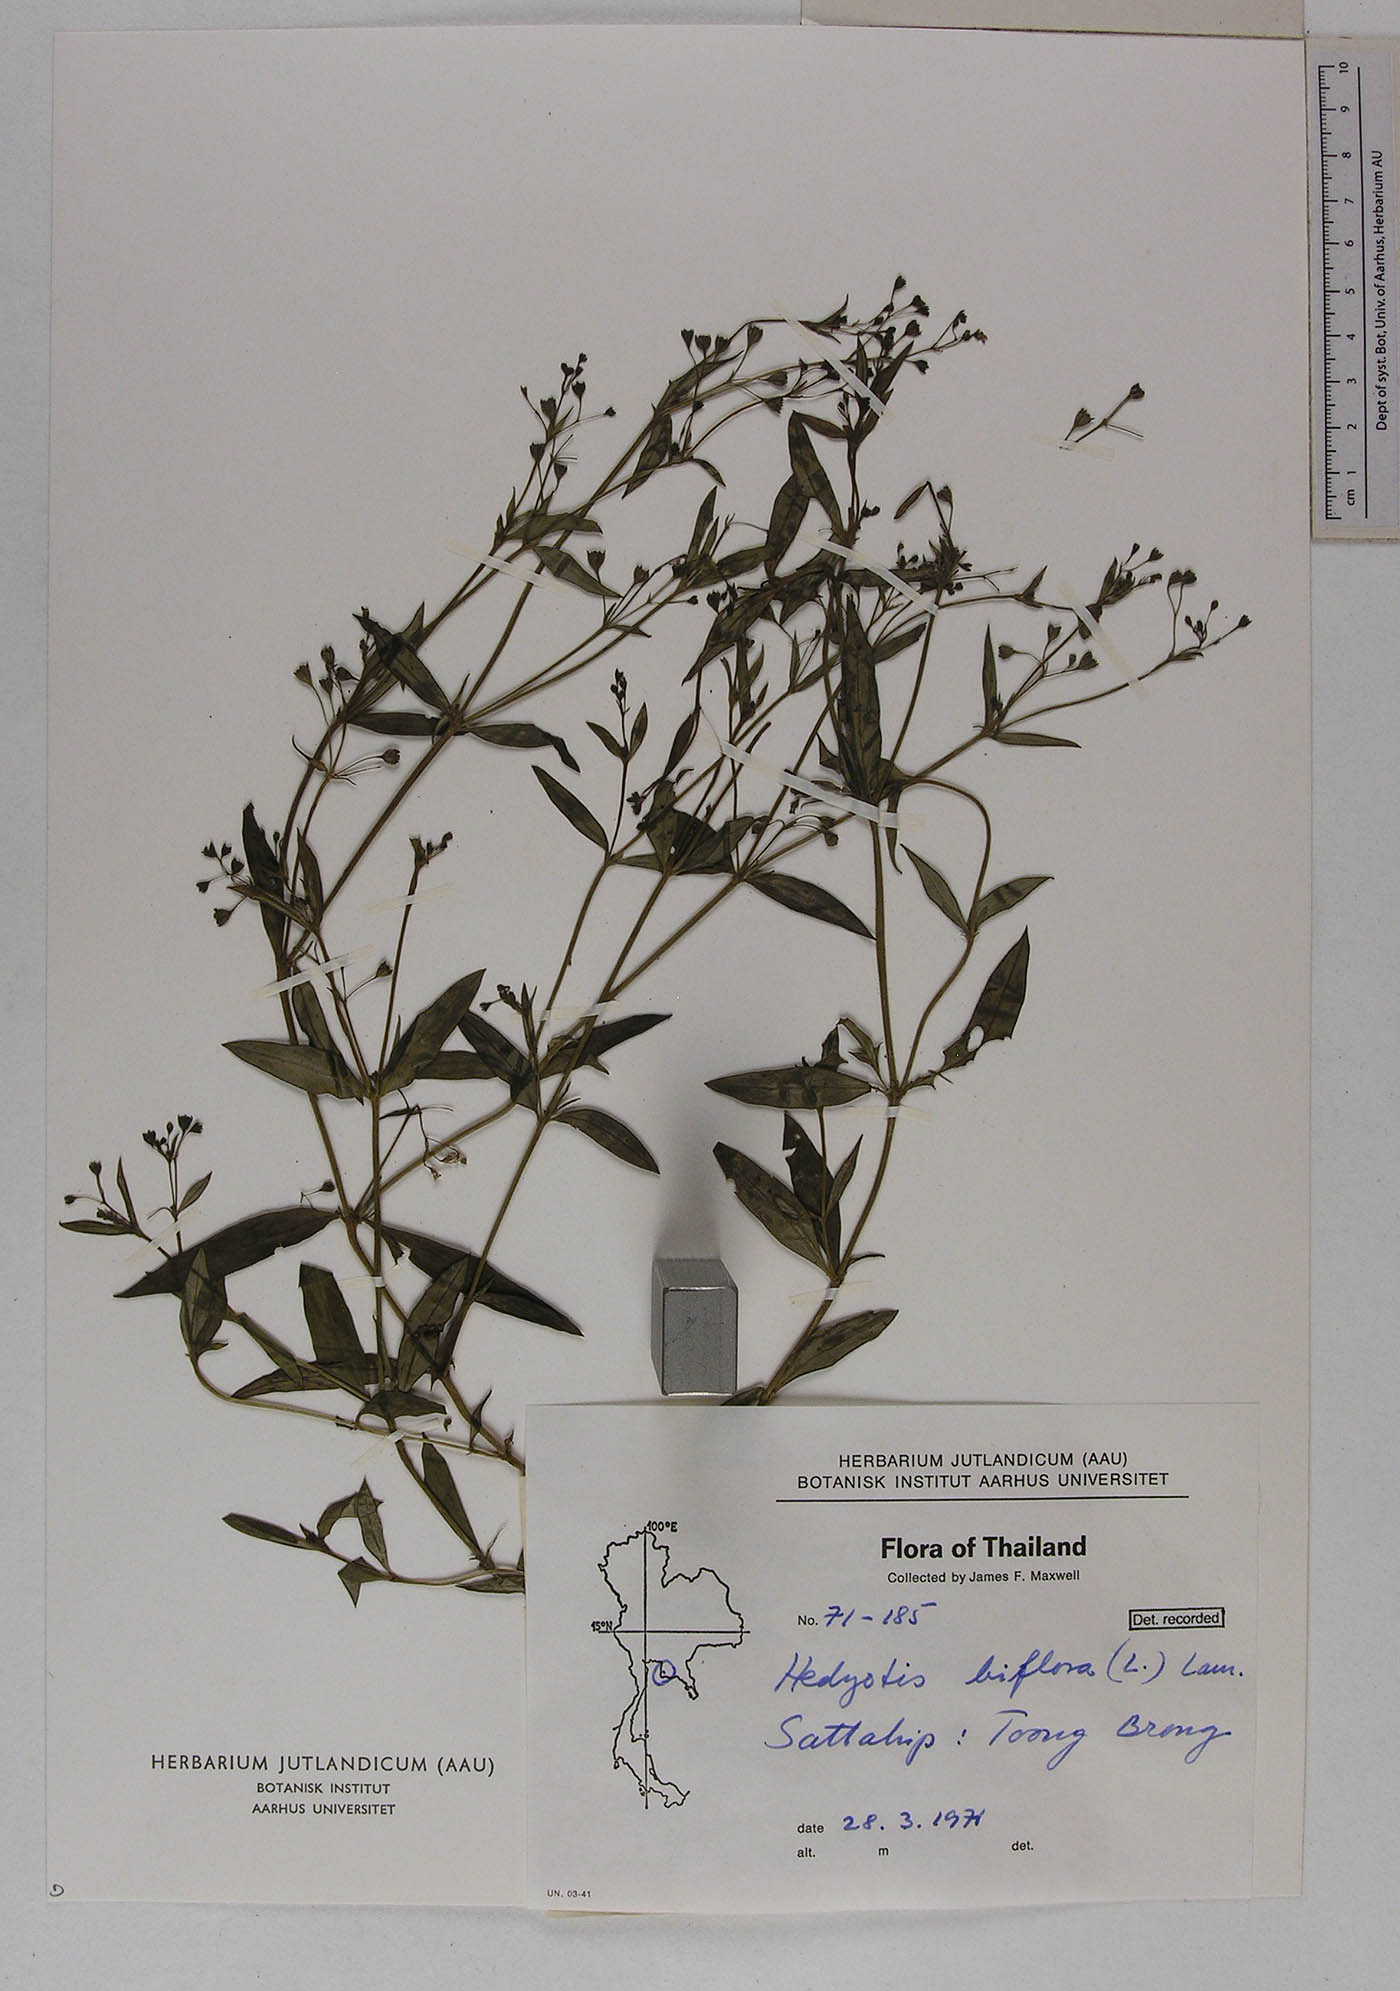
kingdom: Plantae
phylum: Tracheophyta
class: Magnoliopsida
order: Gentianales
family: Rubiaceae
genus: Leptopetalum
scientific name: Leptopetalum biflorum
